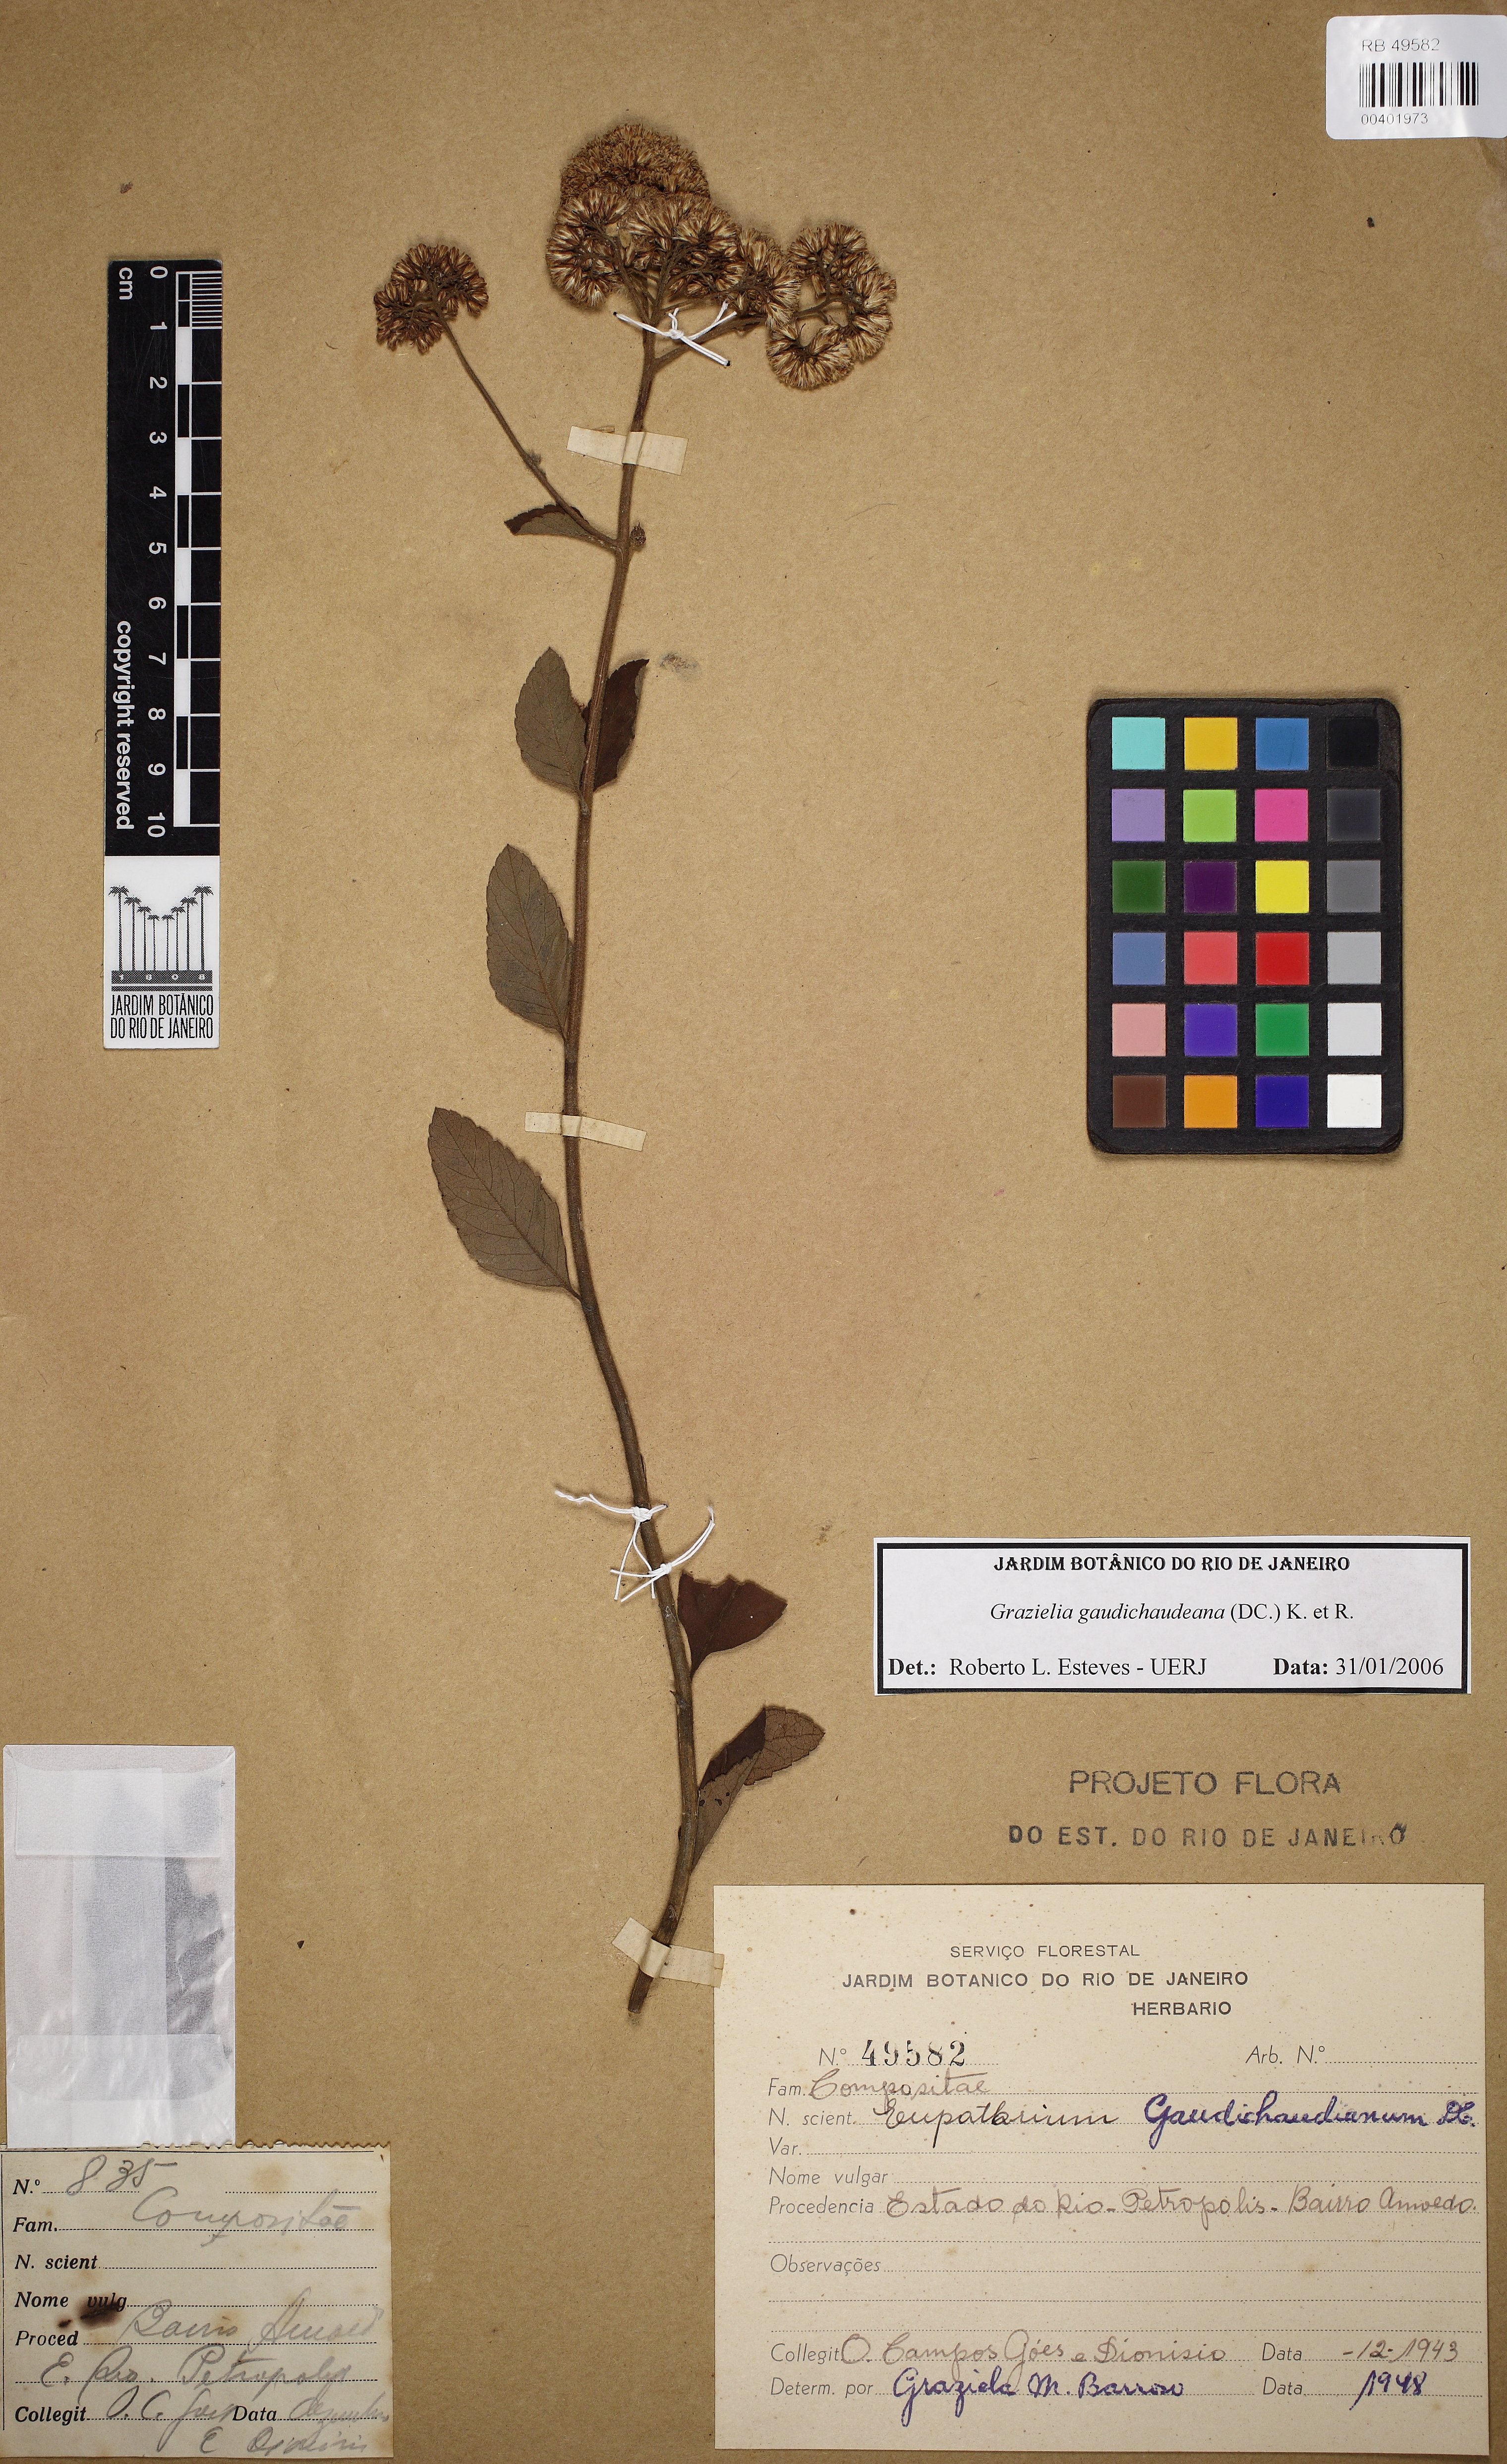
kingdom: Plantae
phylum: Tracheophyta
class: Magnoliopsida
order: Asterales
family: Asteraceae
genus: Grazielia
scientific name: Grazielia gaudichaudiana
